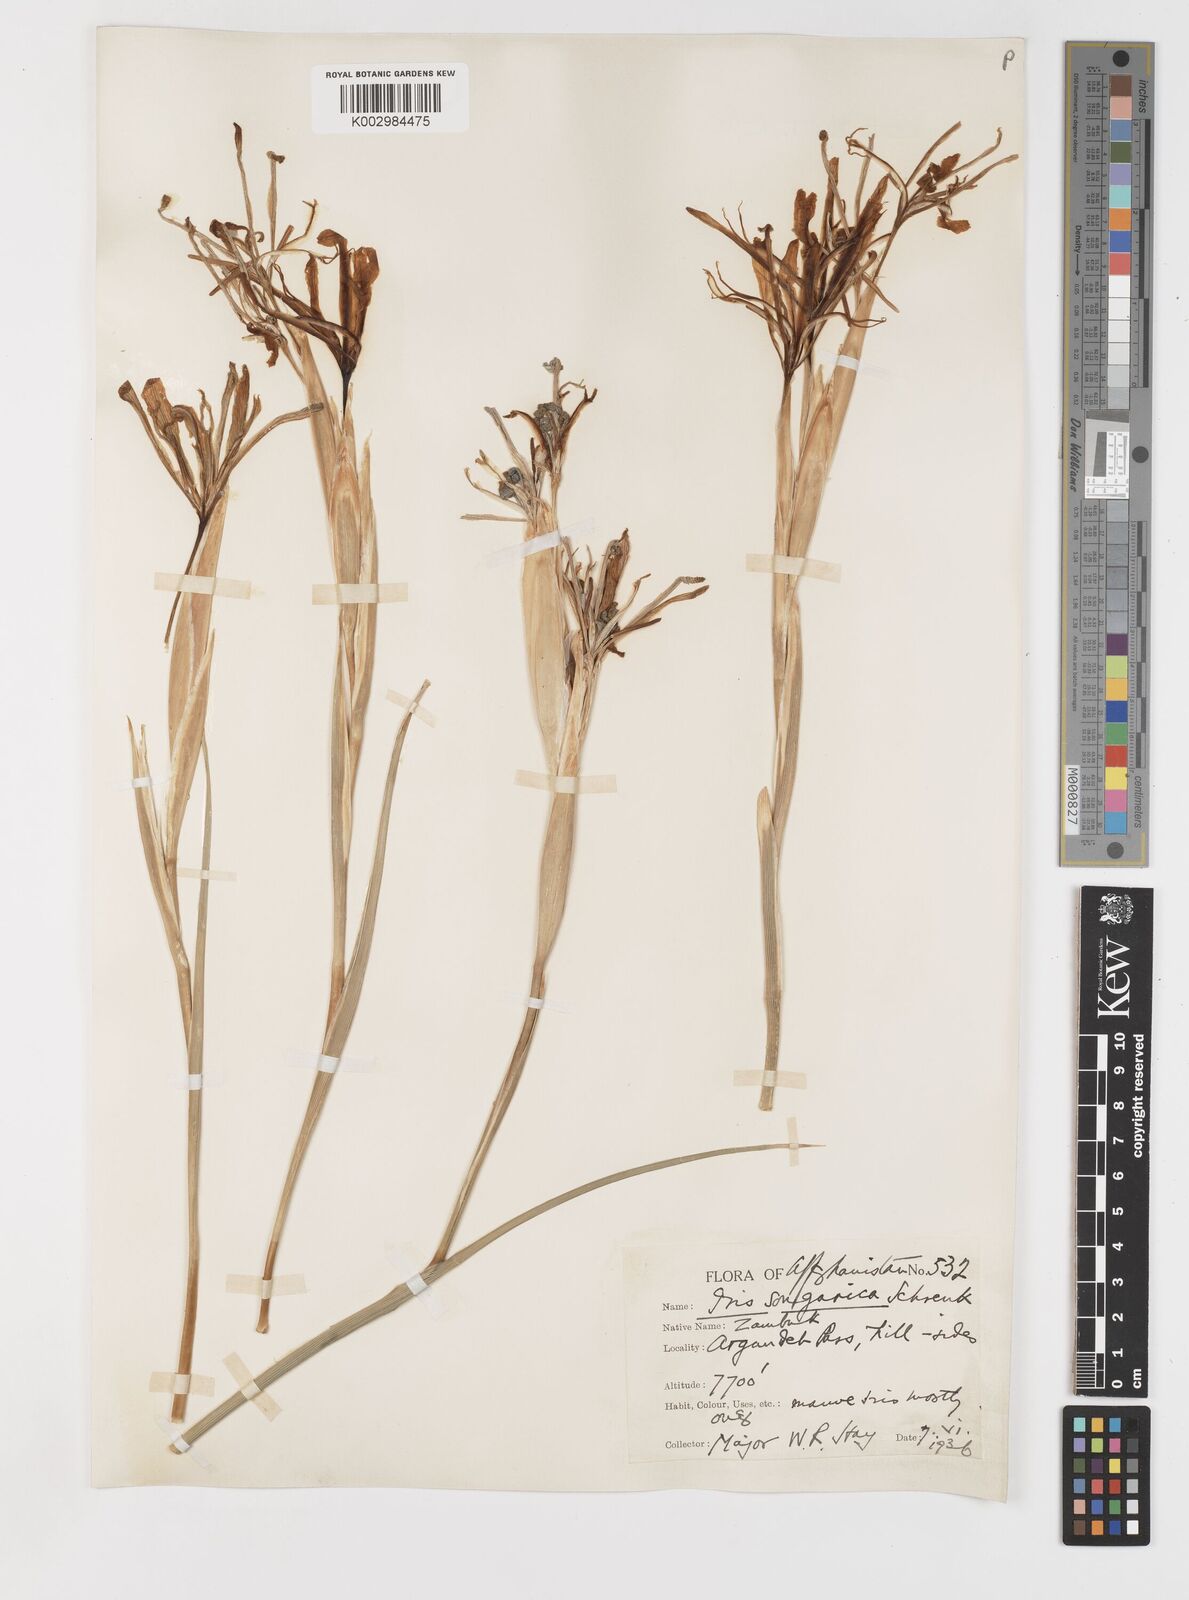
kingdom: Plantae
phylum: Tracheophyta
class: Liliopsida
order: Asparagales
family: Iridaceae
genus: Iris
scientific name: Iris songarica
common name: Songar iris
